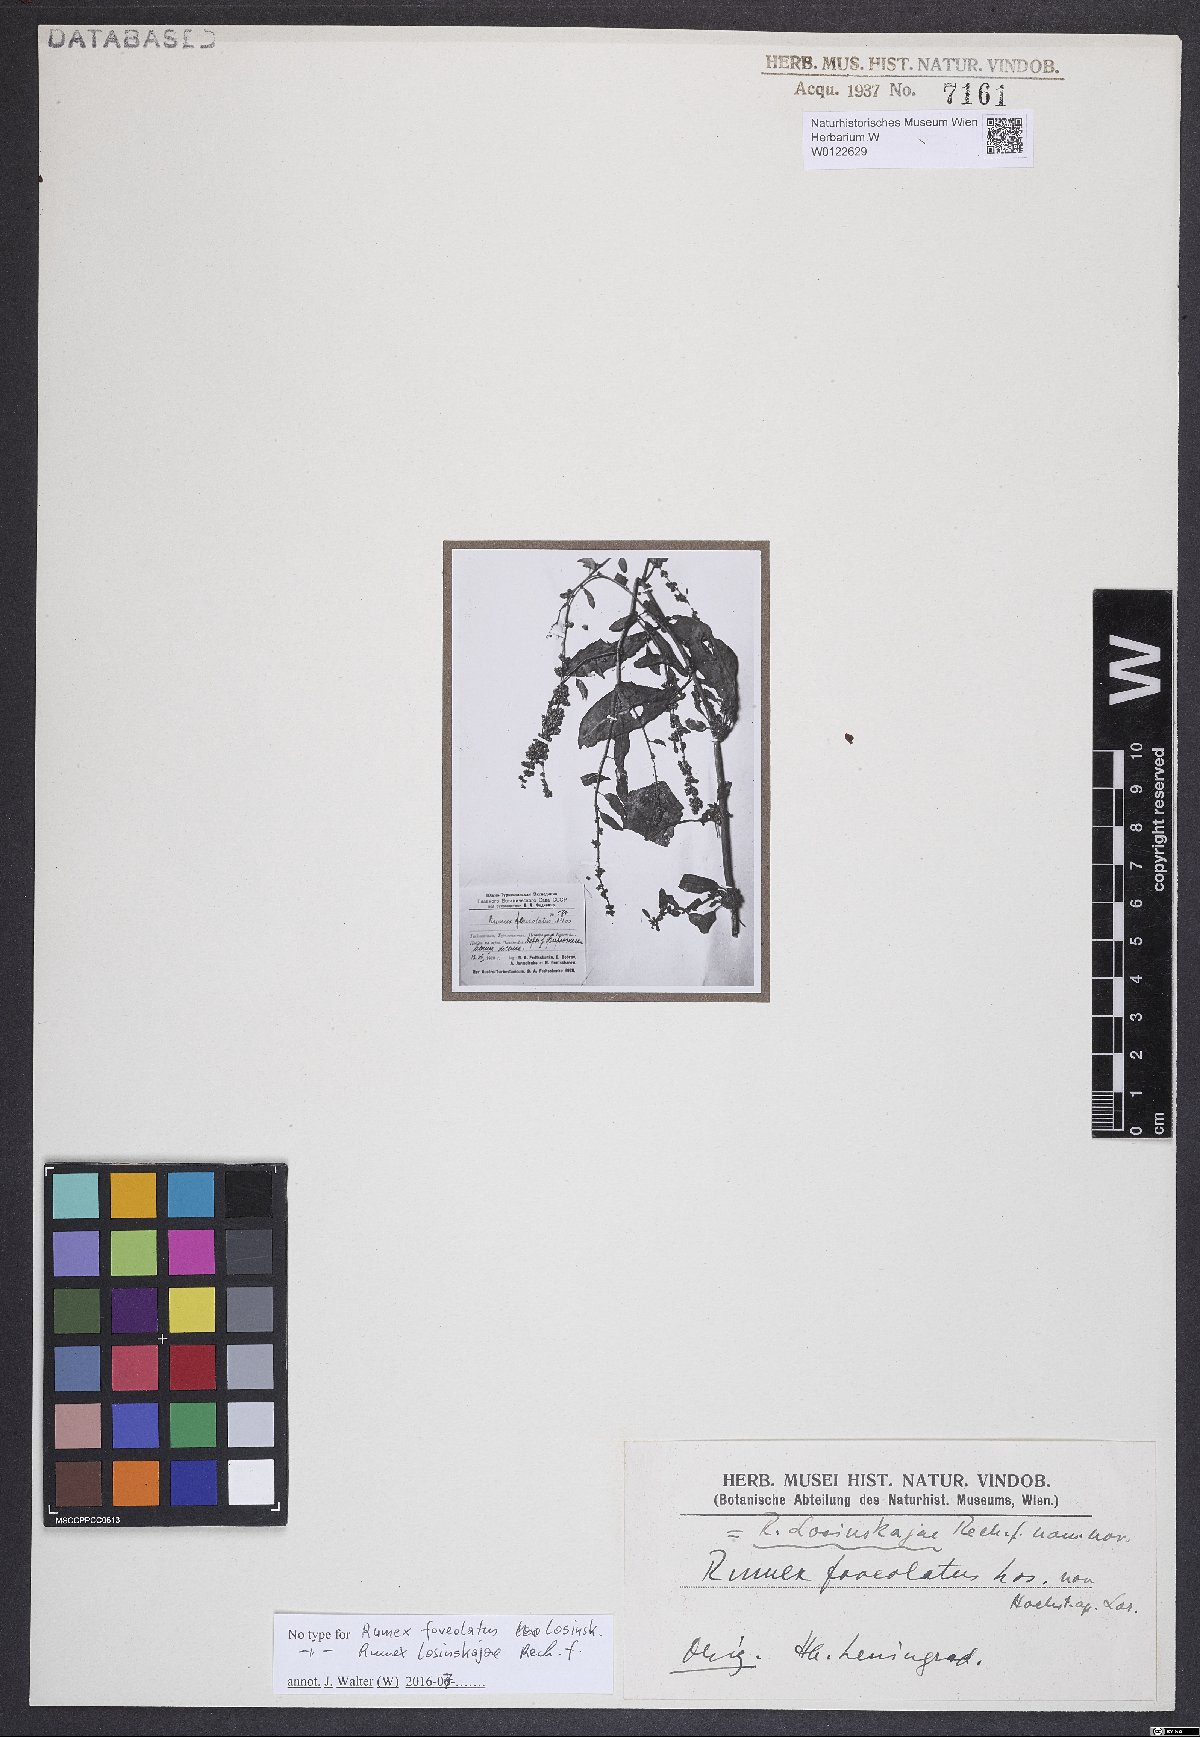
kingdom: Plantae
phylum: Tracheophyta
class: Magnoliopsida
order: Caryophyllales
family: Polygonaceae
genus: Rumex
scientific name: Rumex alveolatus
